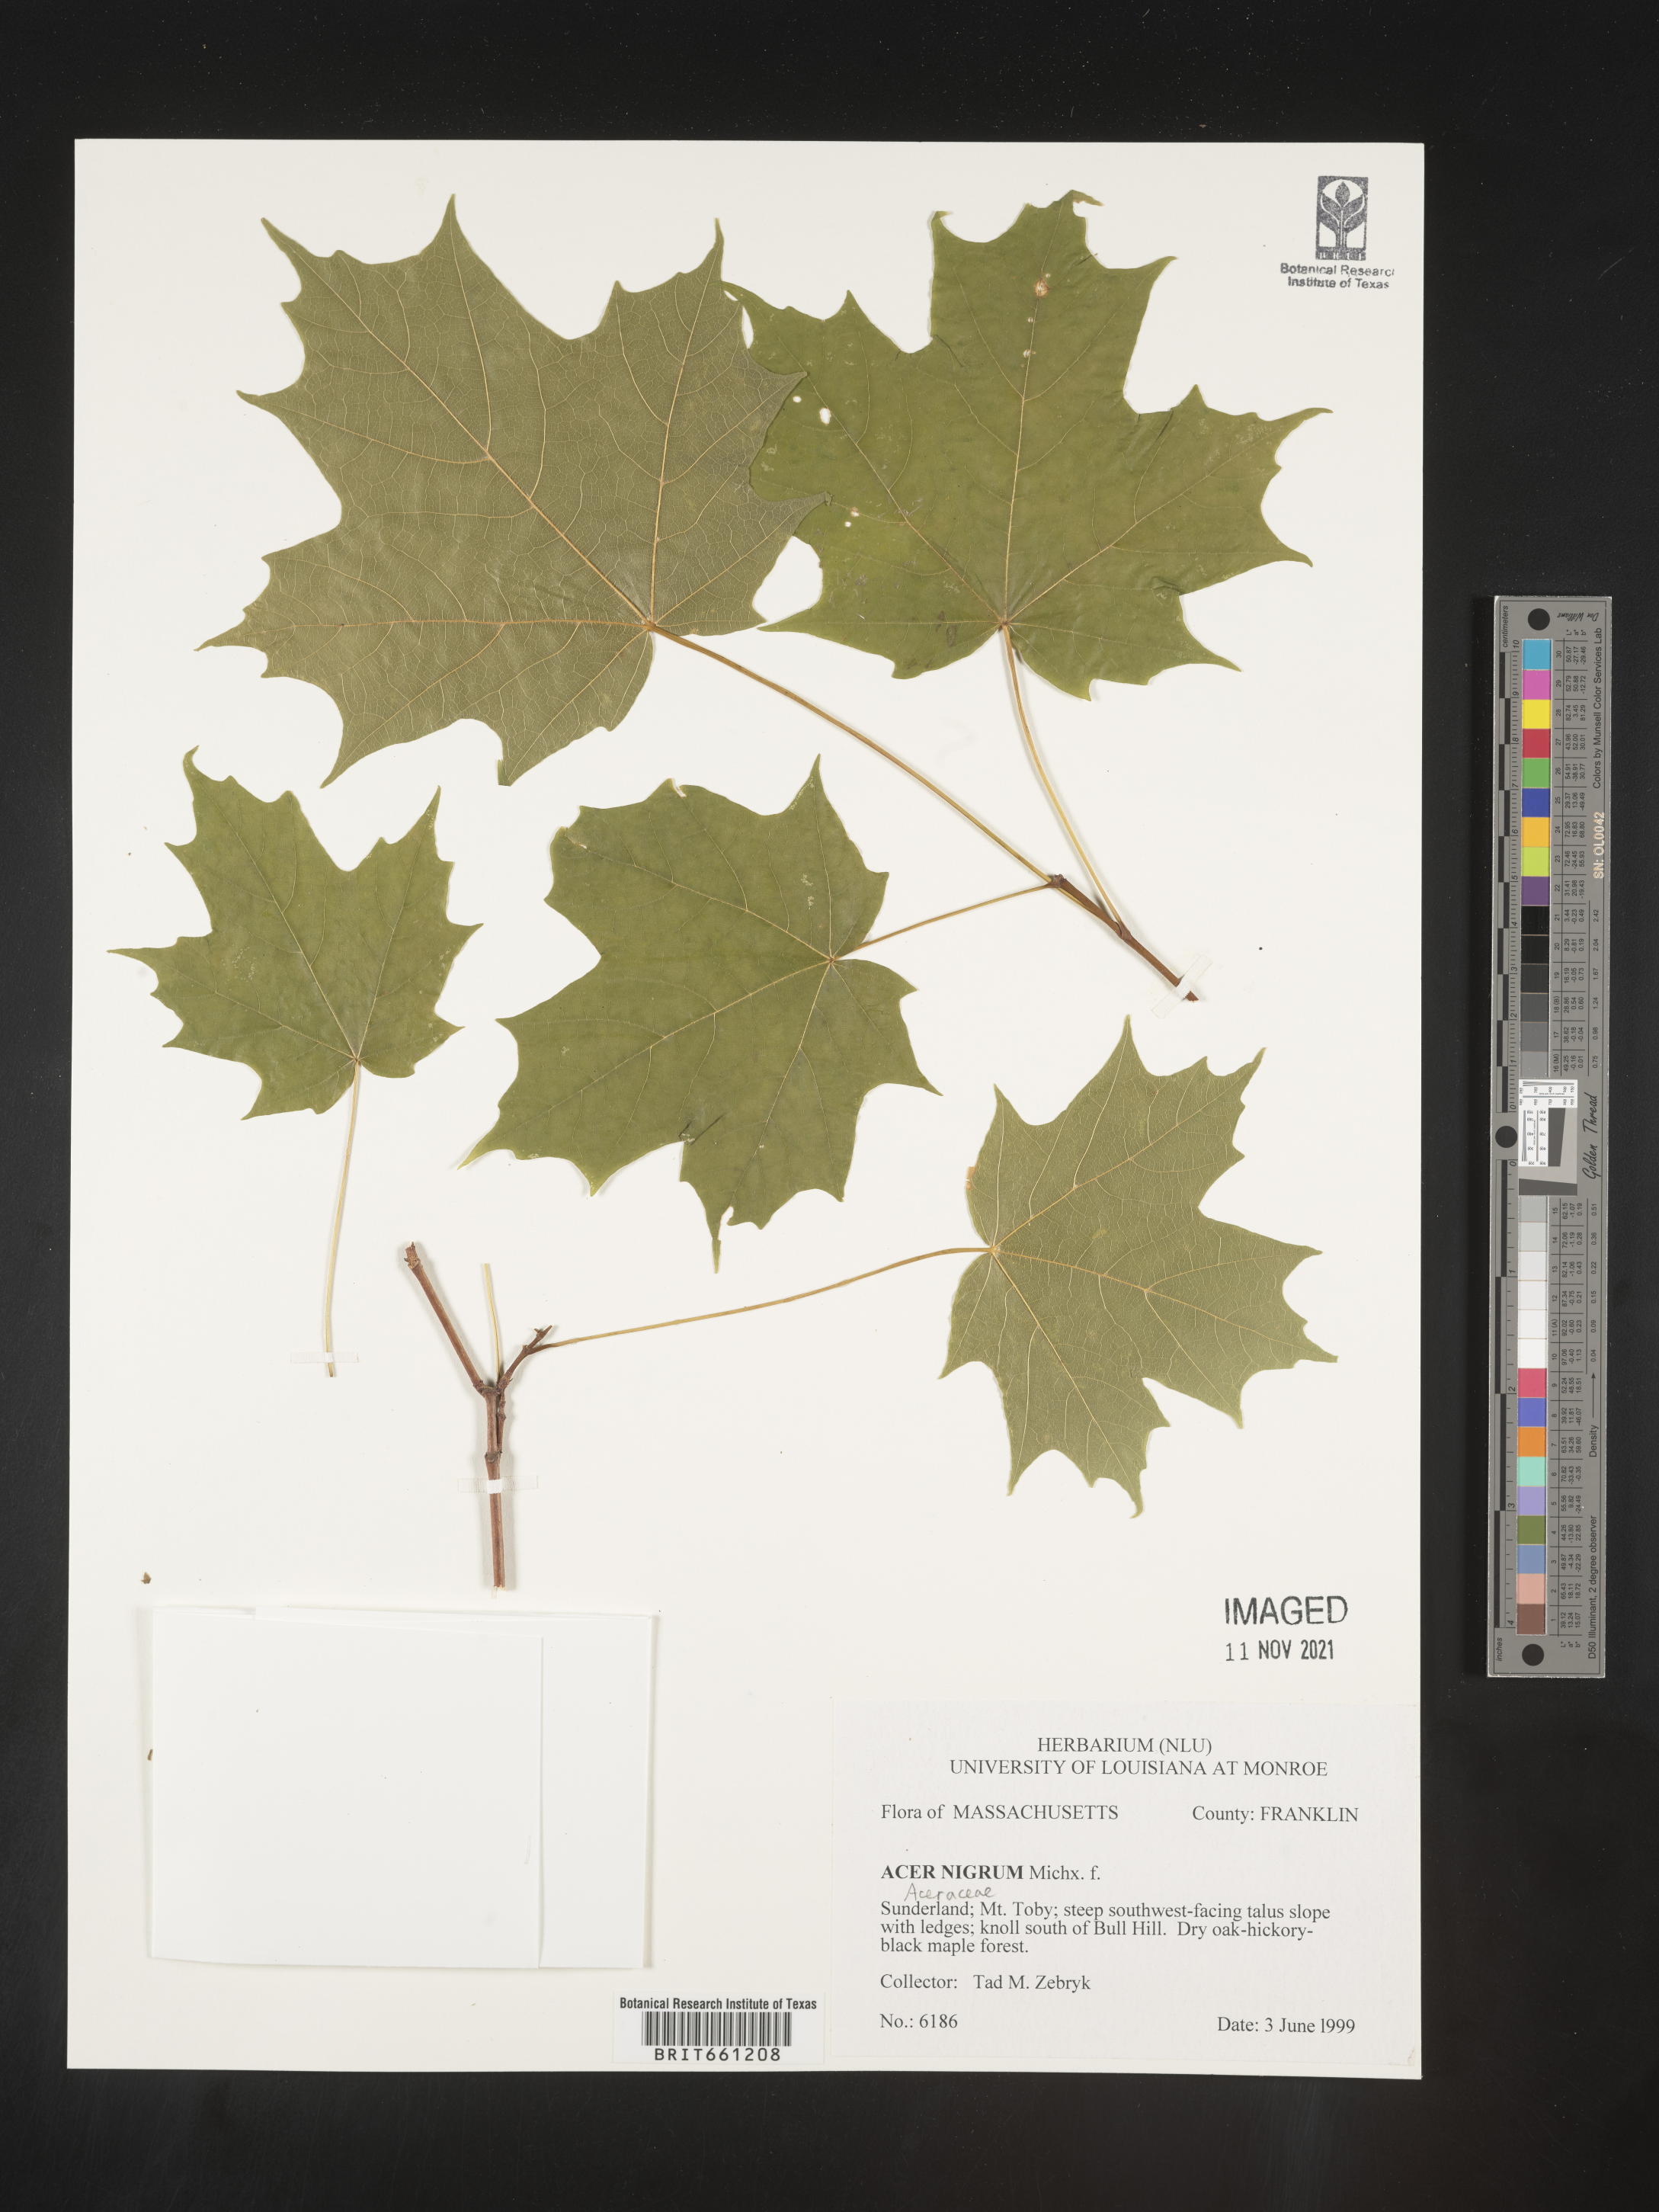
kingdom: Plantae
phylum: Tracheophyta
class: Magnoliopsida
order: Sapindales
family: Sapindaceae
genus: Acer
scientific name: Acer
